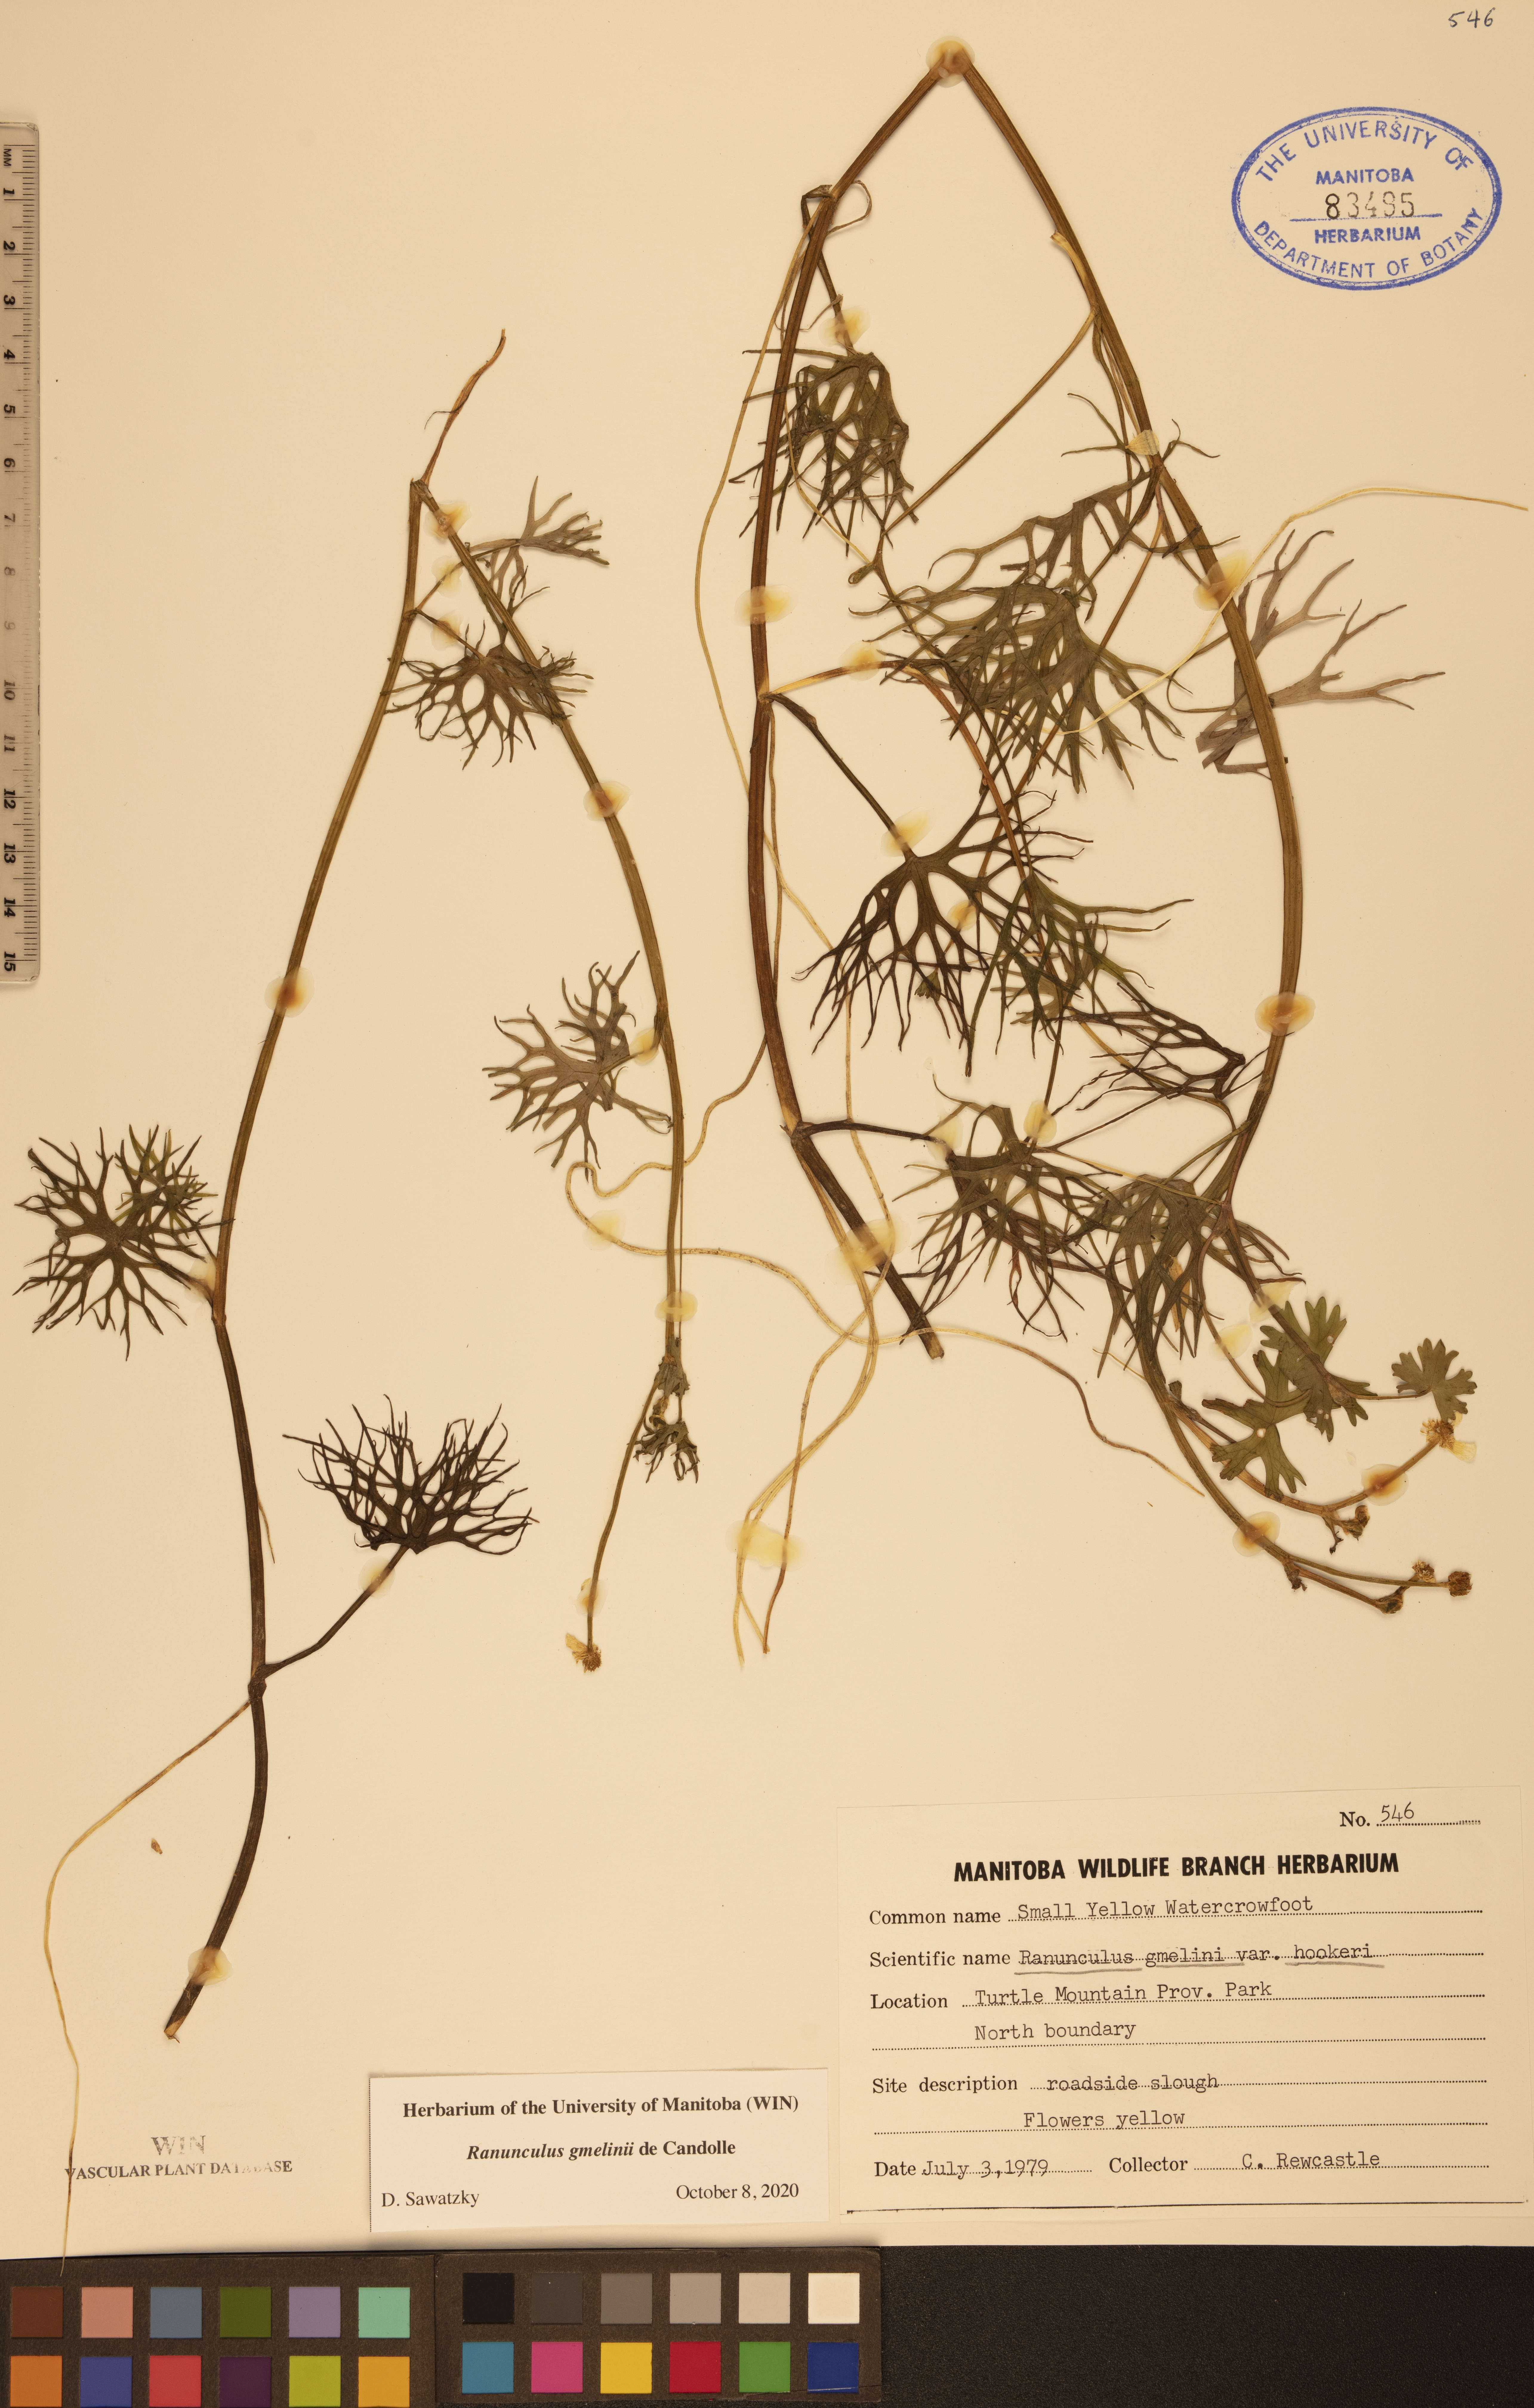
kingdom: Plantae
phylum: Tracheophyta
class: Magnoliopsida
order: Ranunculales
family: Ranunculaceae
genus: Ranunculus
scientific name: Ranunculus gmelinii
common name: Gmelin's buttercup
